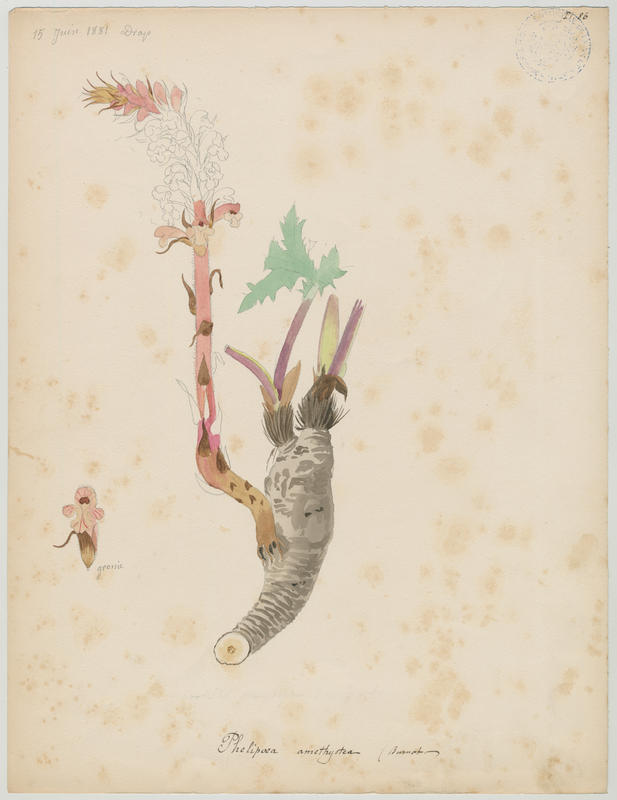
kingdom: Plantae
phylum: Tracheophyta
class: Magnoliopsida
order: Lamiales
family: Orobanchaceae
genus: Orobanche
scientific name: Orobanche amethystea
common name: Amethyst broomrape
